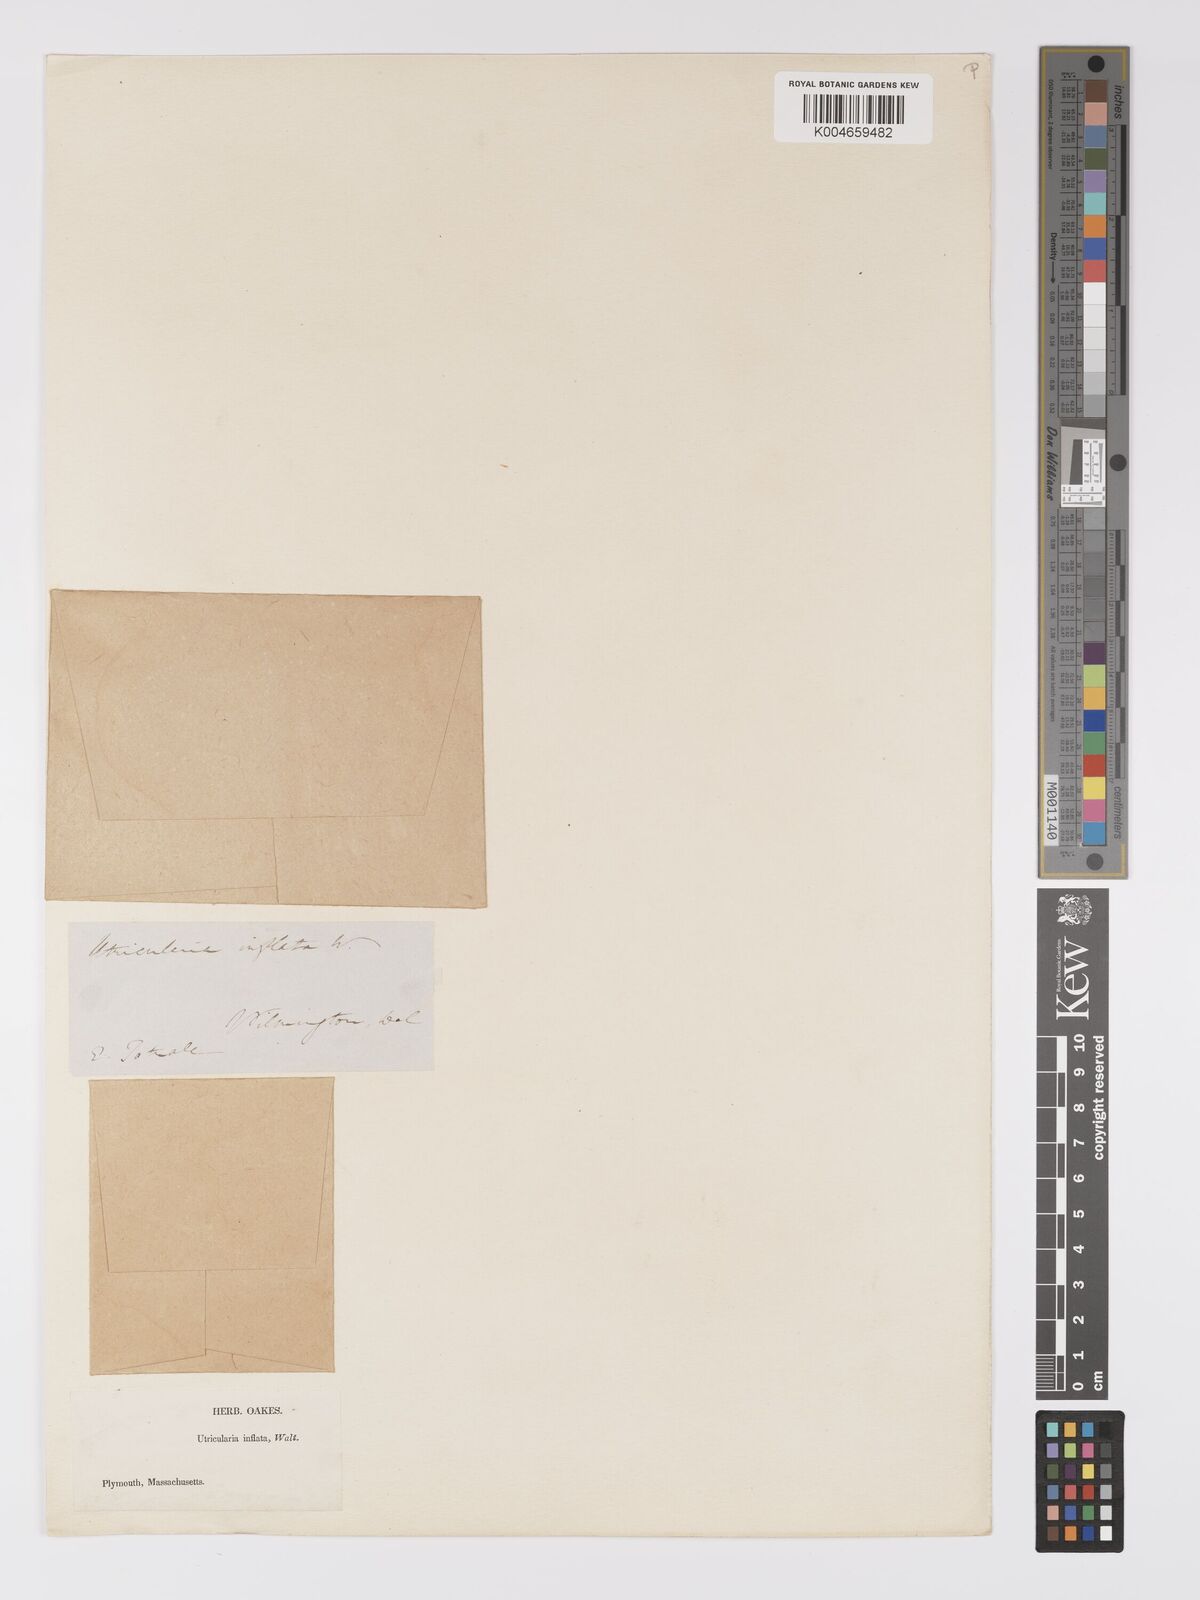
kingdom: Plantae
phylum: Tracheophyta
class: Magnoliopsida
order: Lamiales
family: Lentibulariaceae
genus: Utricularia
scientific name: Utricularia radiata
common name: Floating bladderwort
